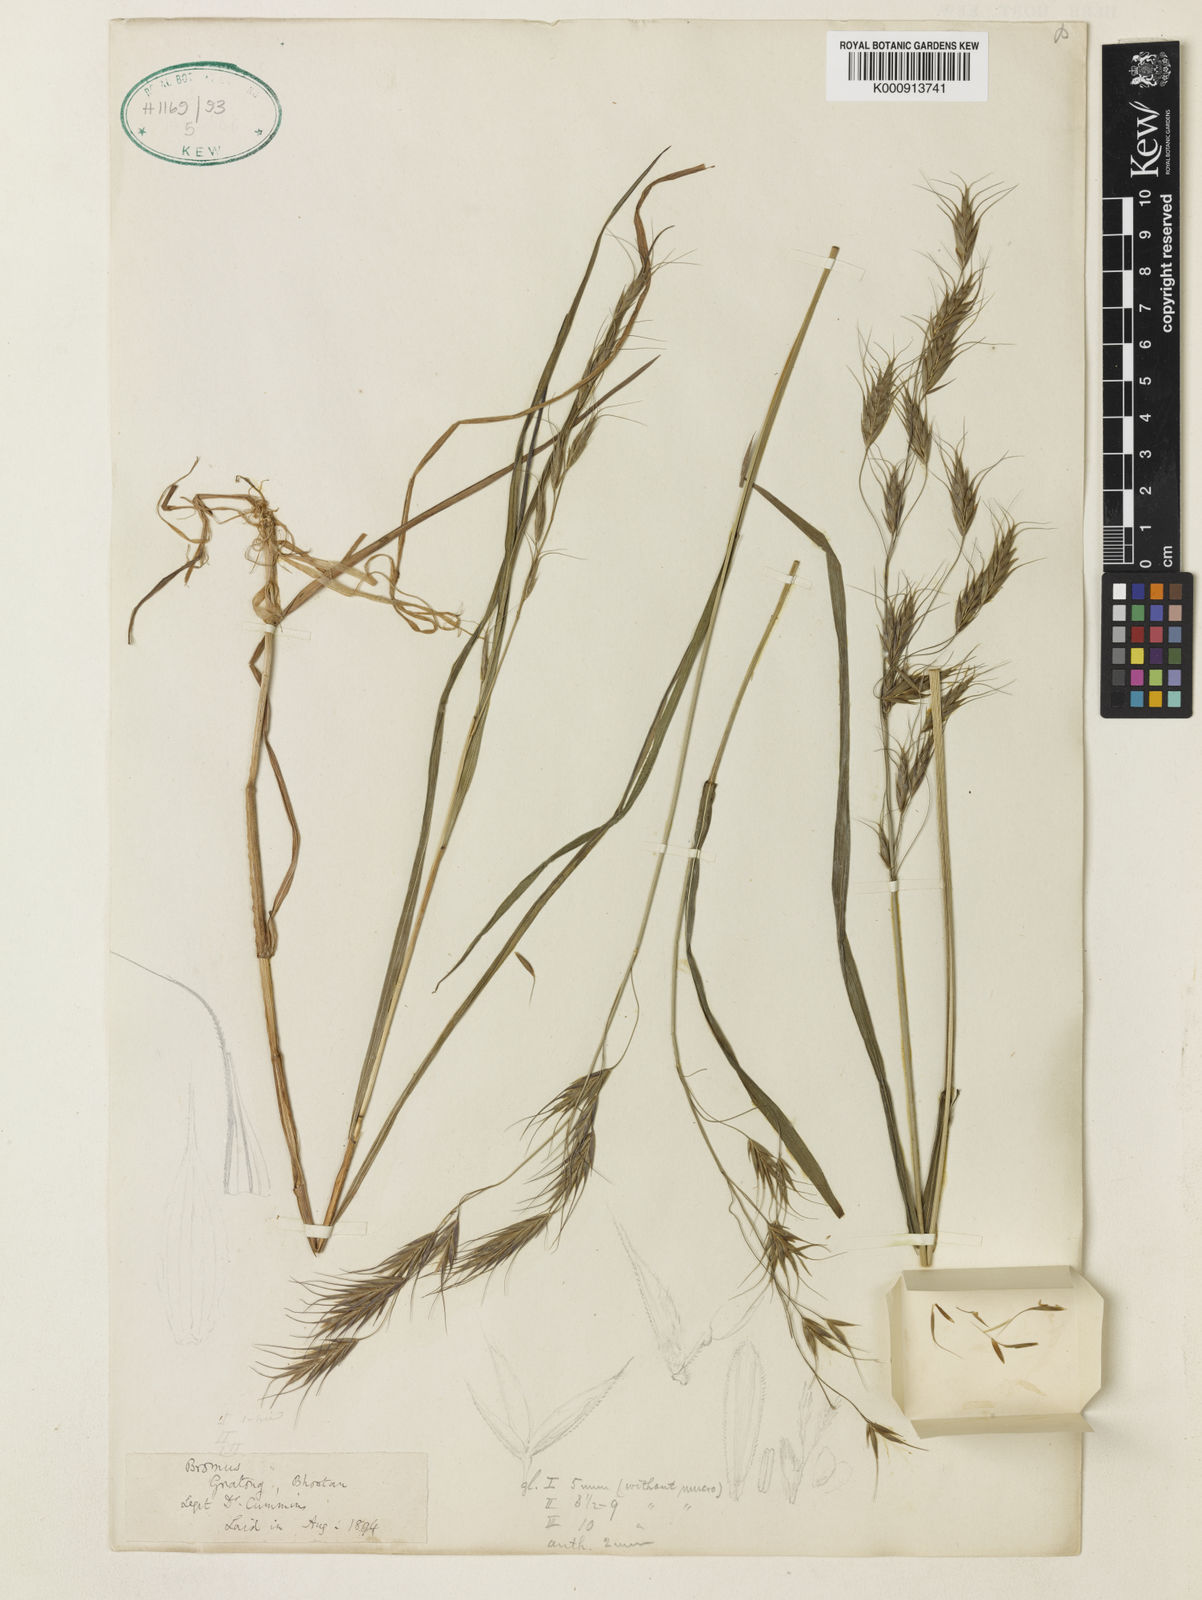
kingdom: Plantae
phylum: Tracheophyta
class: Liliopsida
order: Poales
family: Poaceae
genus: Bromus
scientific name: Bromus himalaicus
